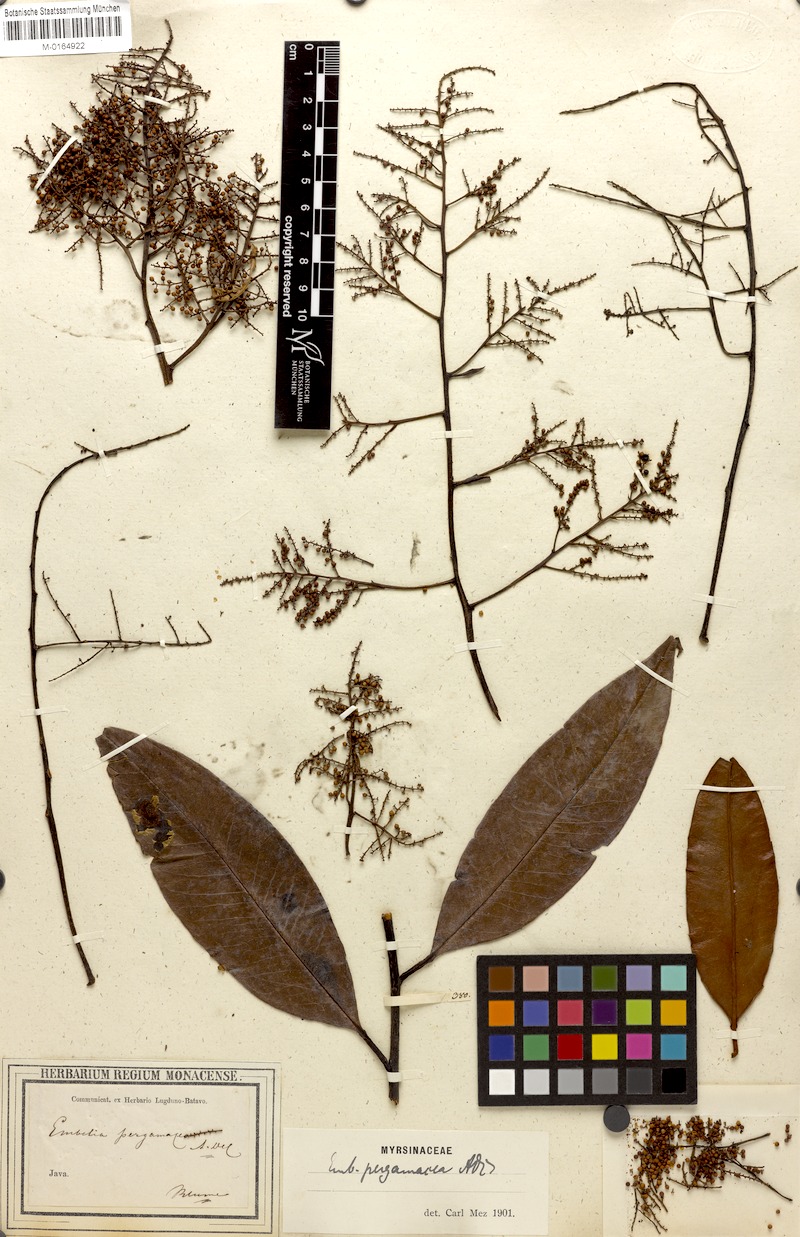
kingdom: Plantae
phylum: Tracheophyta
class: Magnoliopsida
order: Ericales
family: Primulaceae
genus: Embelia
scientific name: Embelia pergamacea
